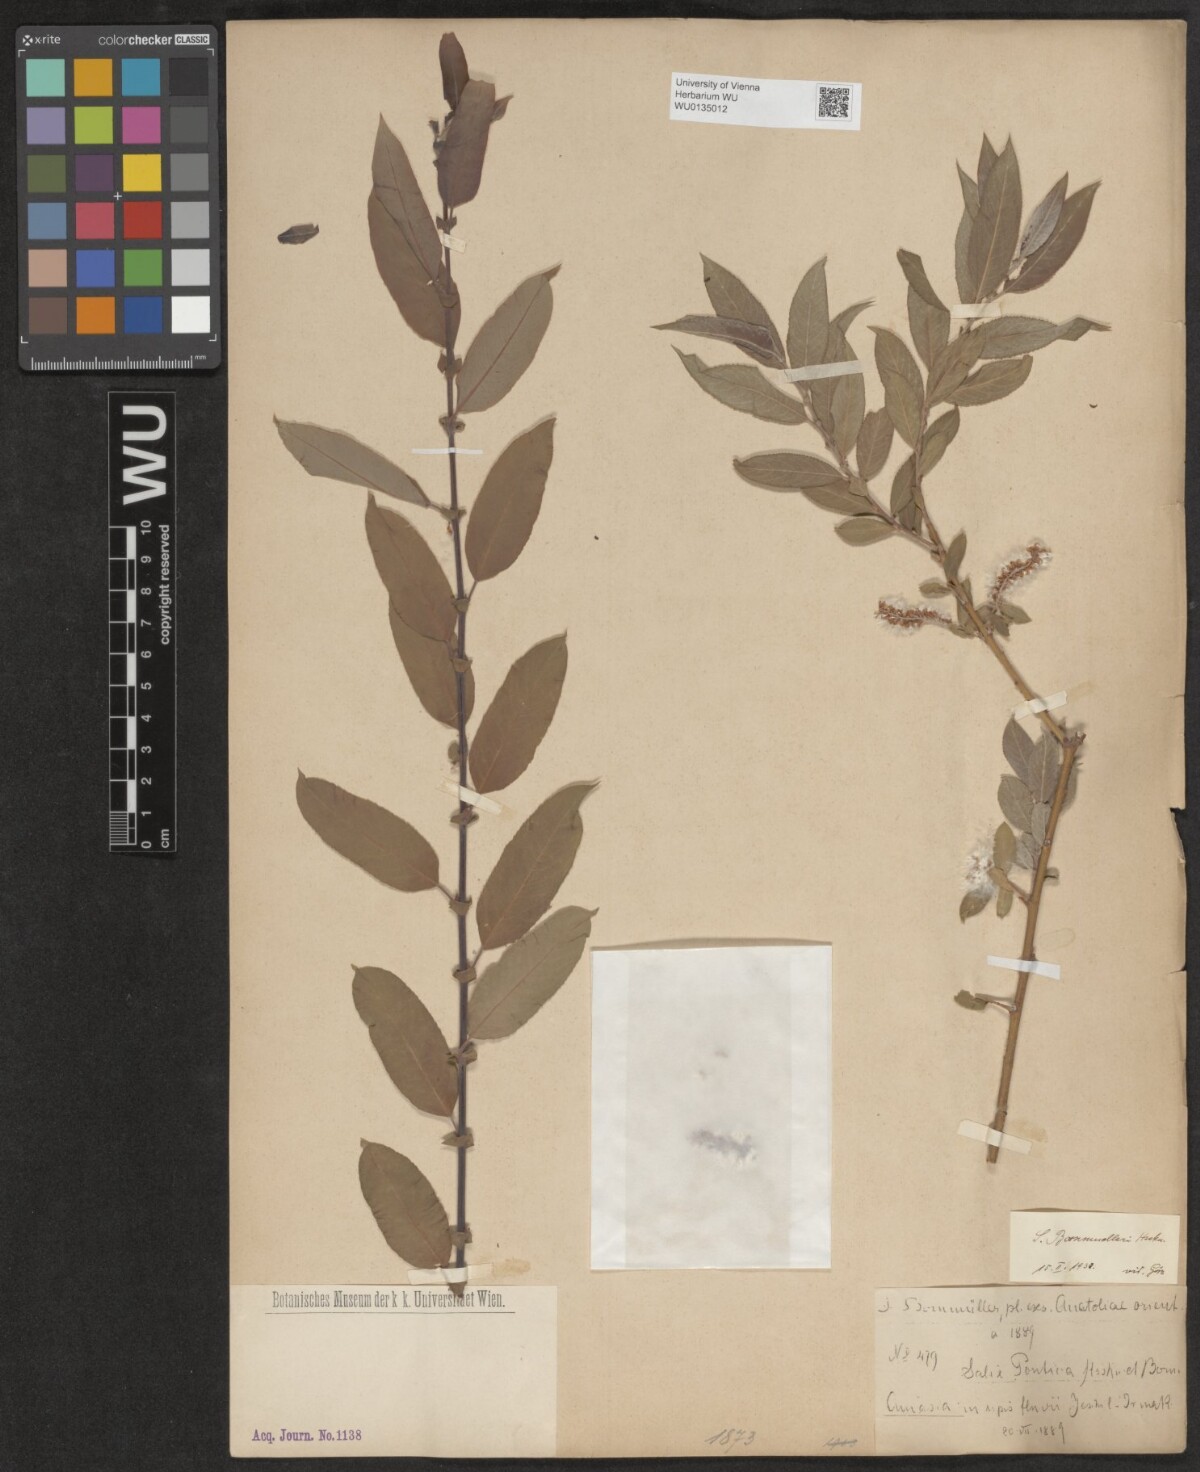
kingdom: Plantae
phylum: Tracheophyta
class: Magnoliopsida
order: Malpighiales
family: Salicaceae
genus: Salix
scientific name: Salix triandra
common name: Almond willow
